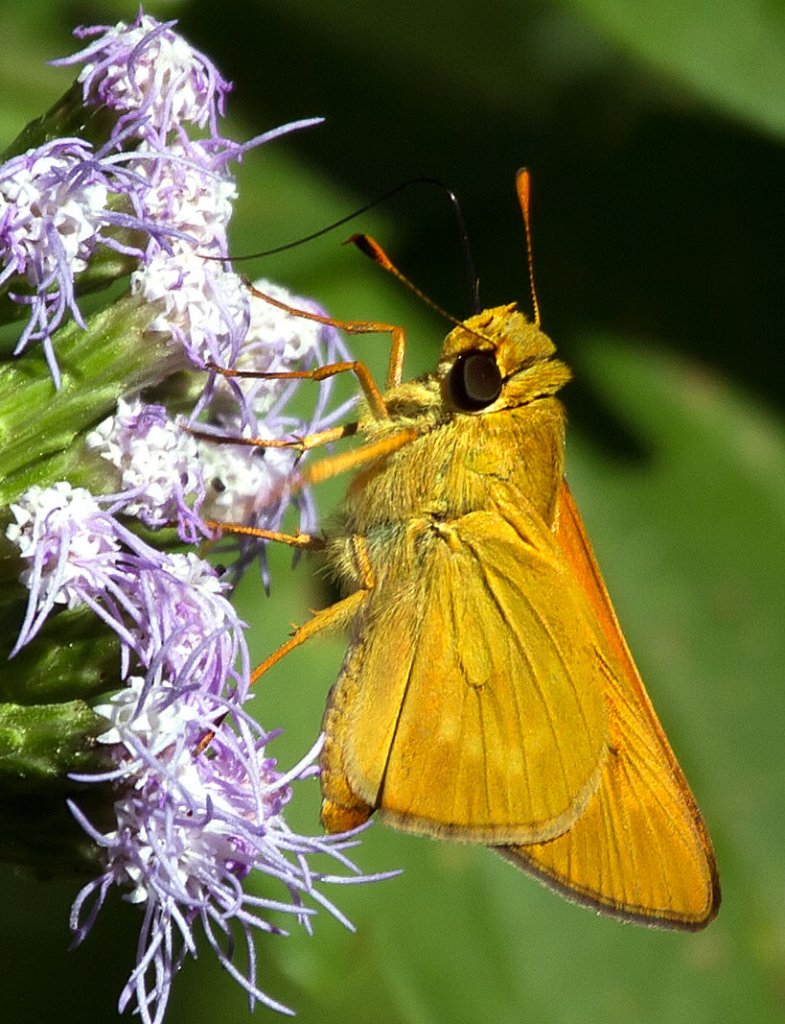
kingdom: Animalia
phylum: Arthropoda
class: Insecta
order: Lepidoptera
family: Hesperiidae
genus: Mellana
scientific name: Mellana eulogius
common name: Common Mellana
